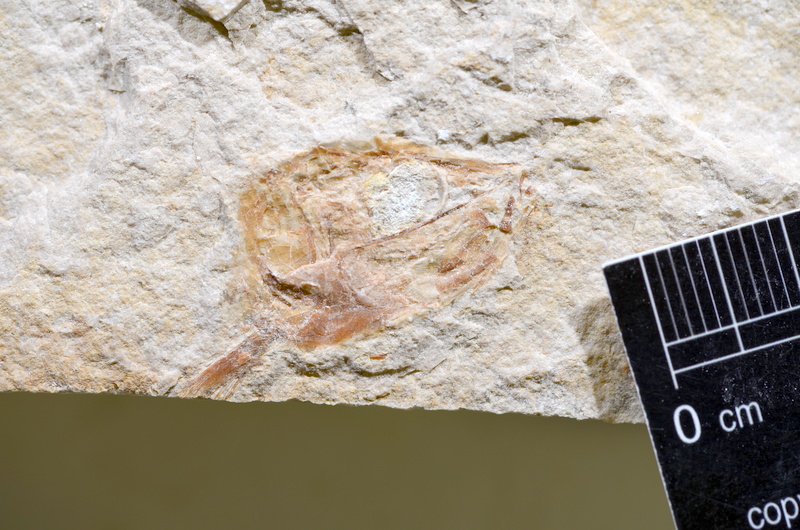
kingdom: Animalia
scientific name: Animalia
